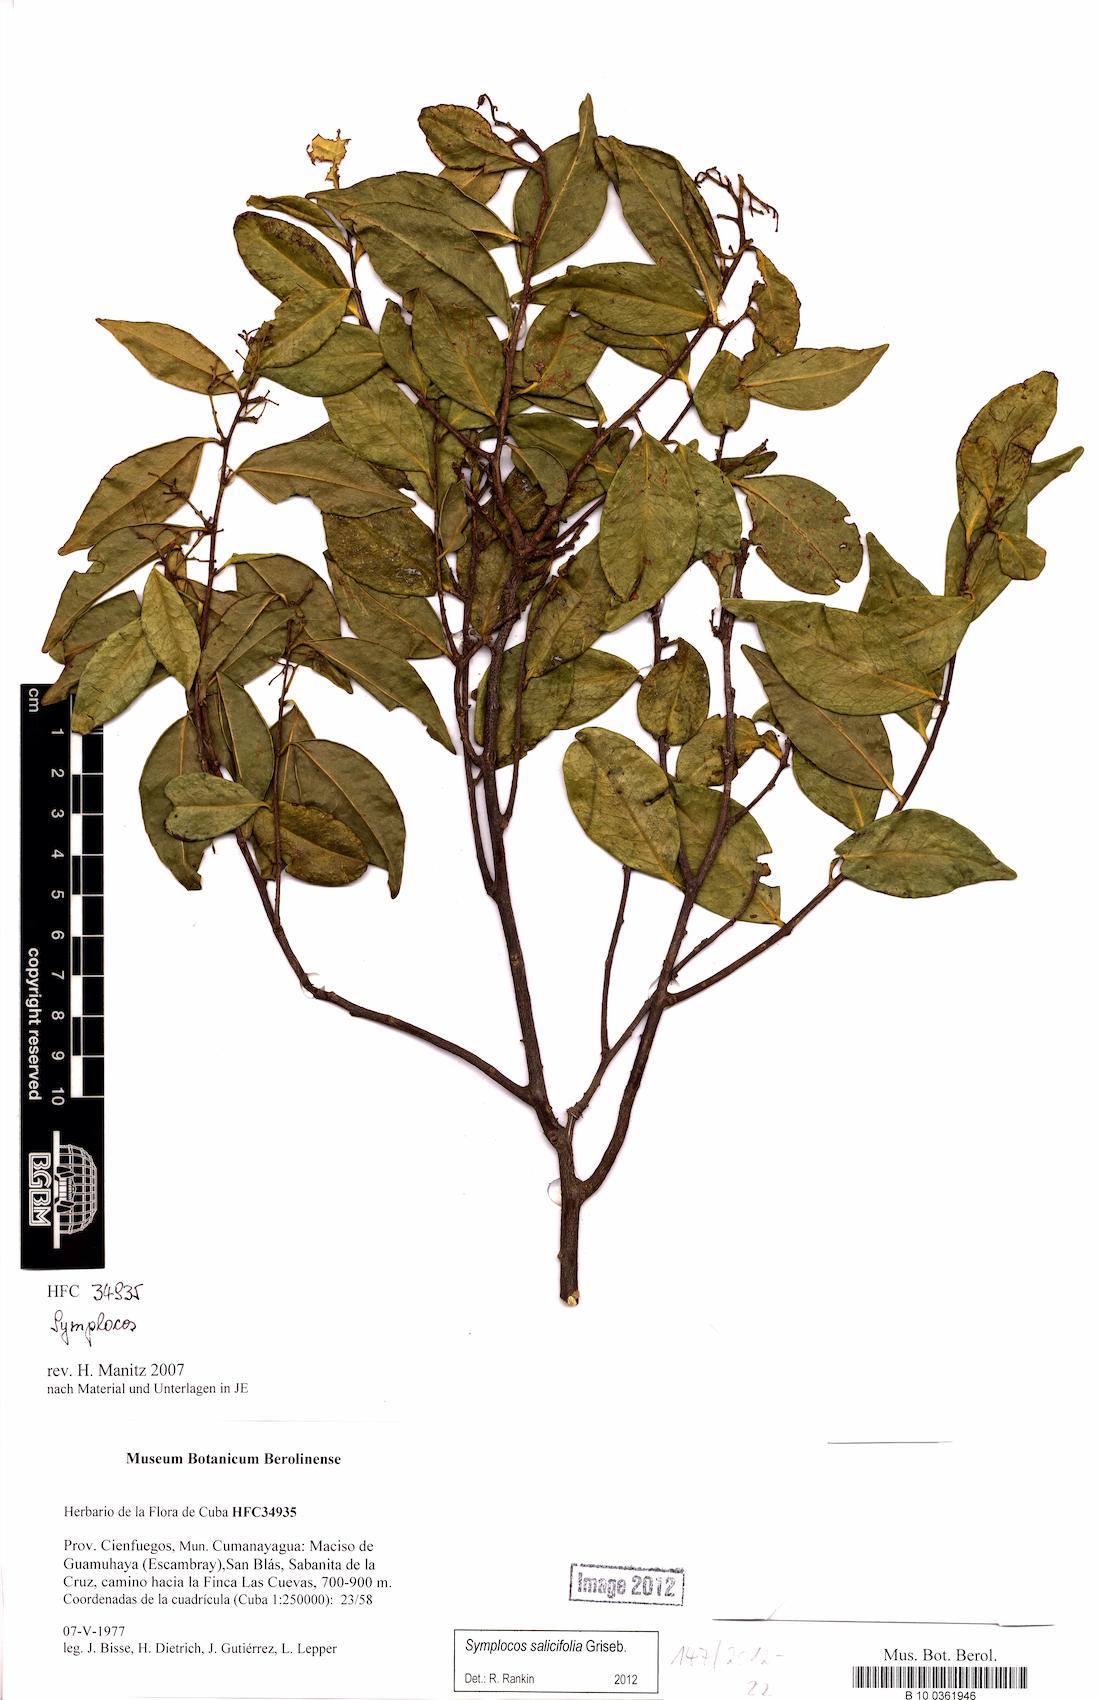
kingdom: Plantae
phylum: Tracheophyta
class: Magnoliopsida
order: Ericales
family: Symplocaceae
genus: Symplocos
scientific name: Symplocos salicifolia
